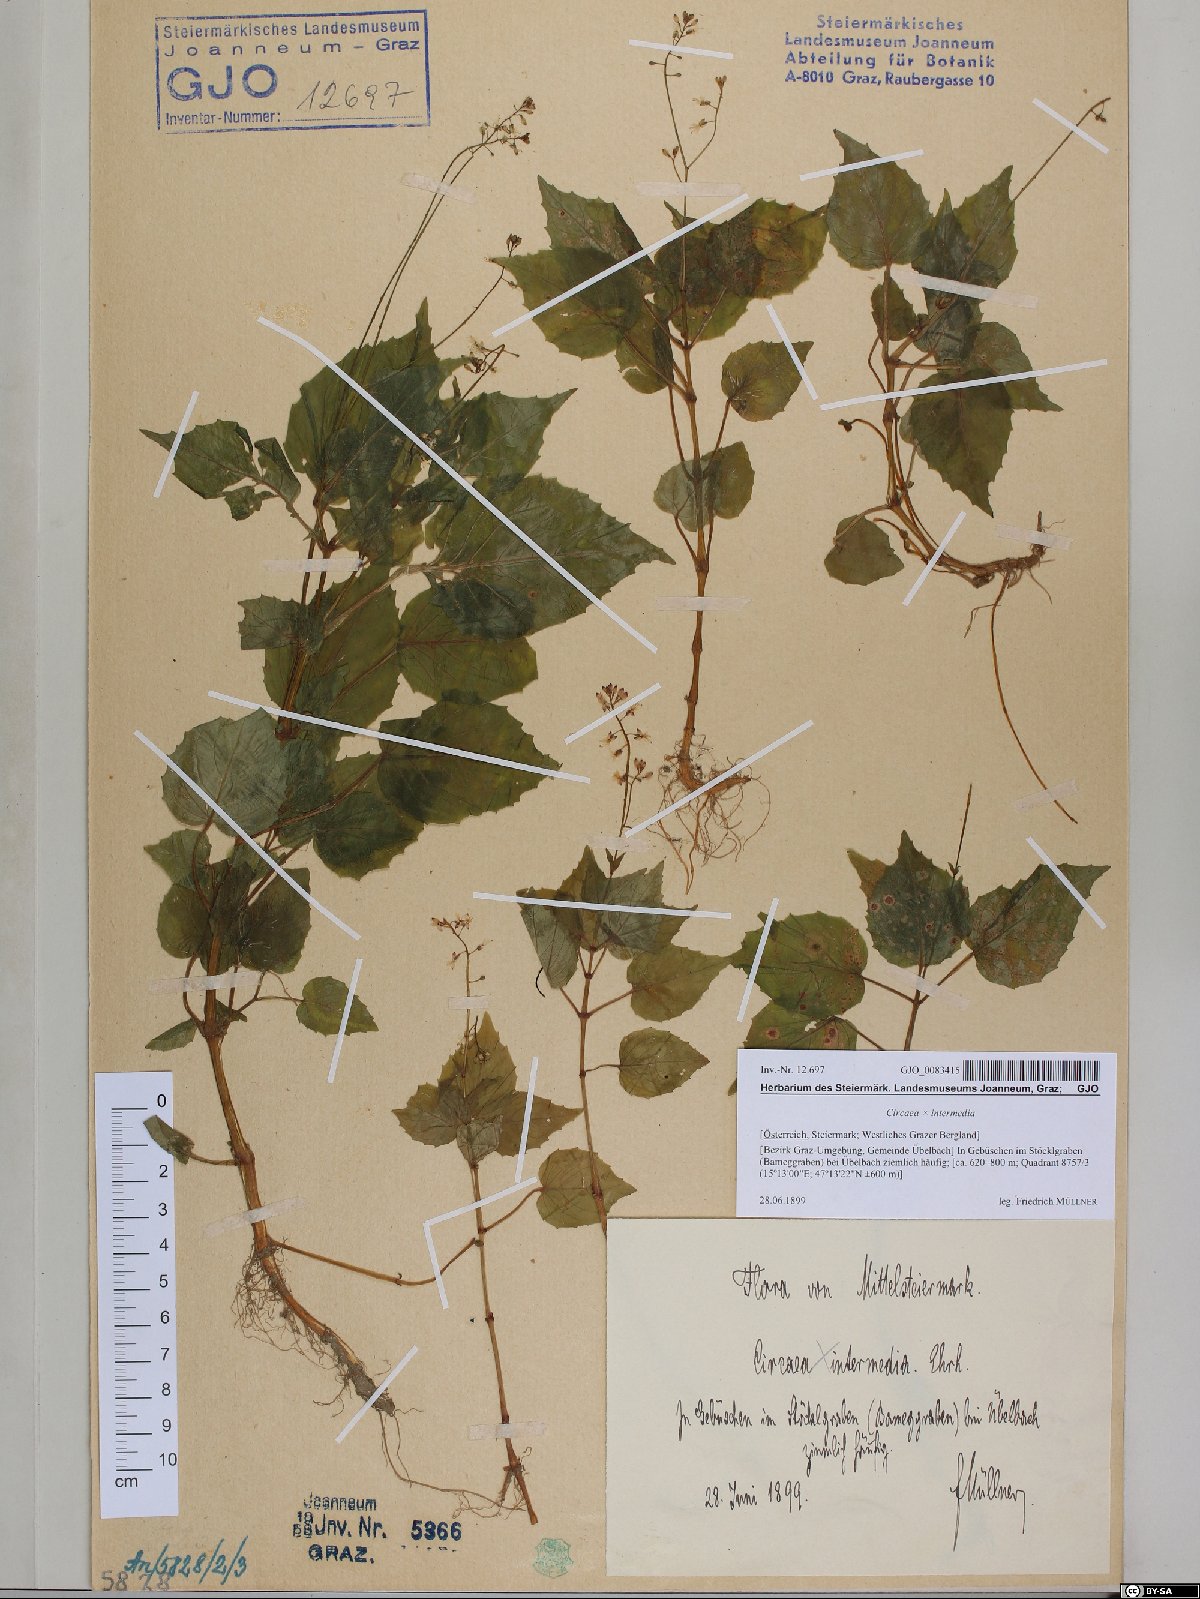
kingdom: Plantae
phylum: Tracheophyta
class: Magnoliopsida
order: Myrtales
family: Onagraceae
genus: Circaea
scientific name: Circaea intermedia
